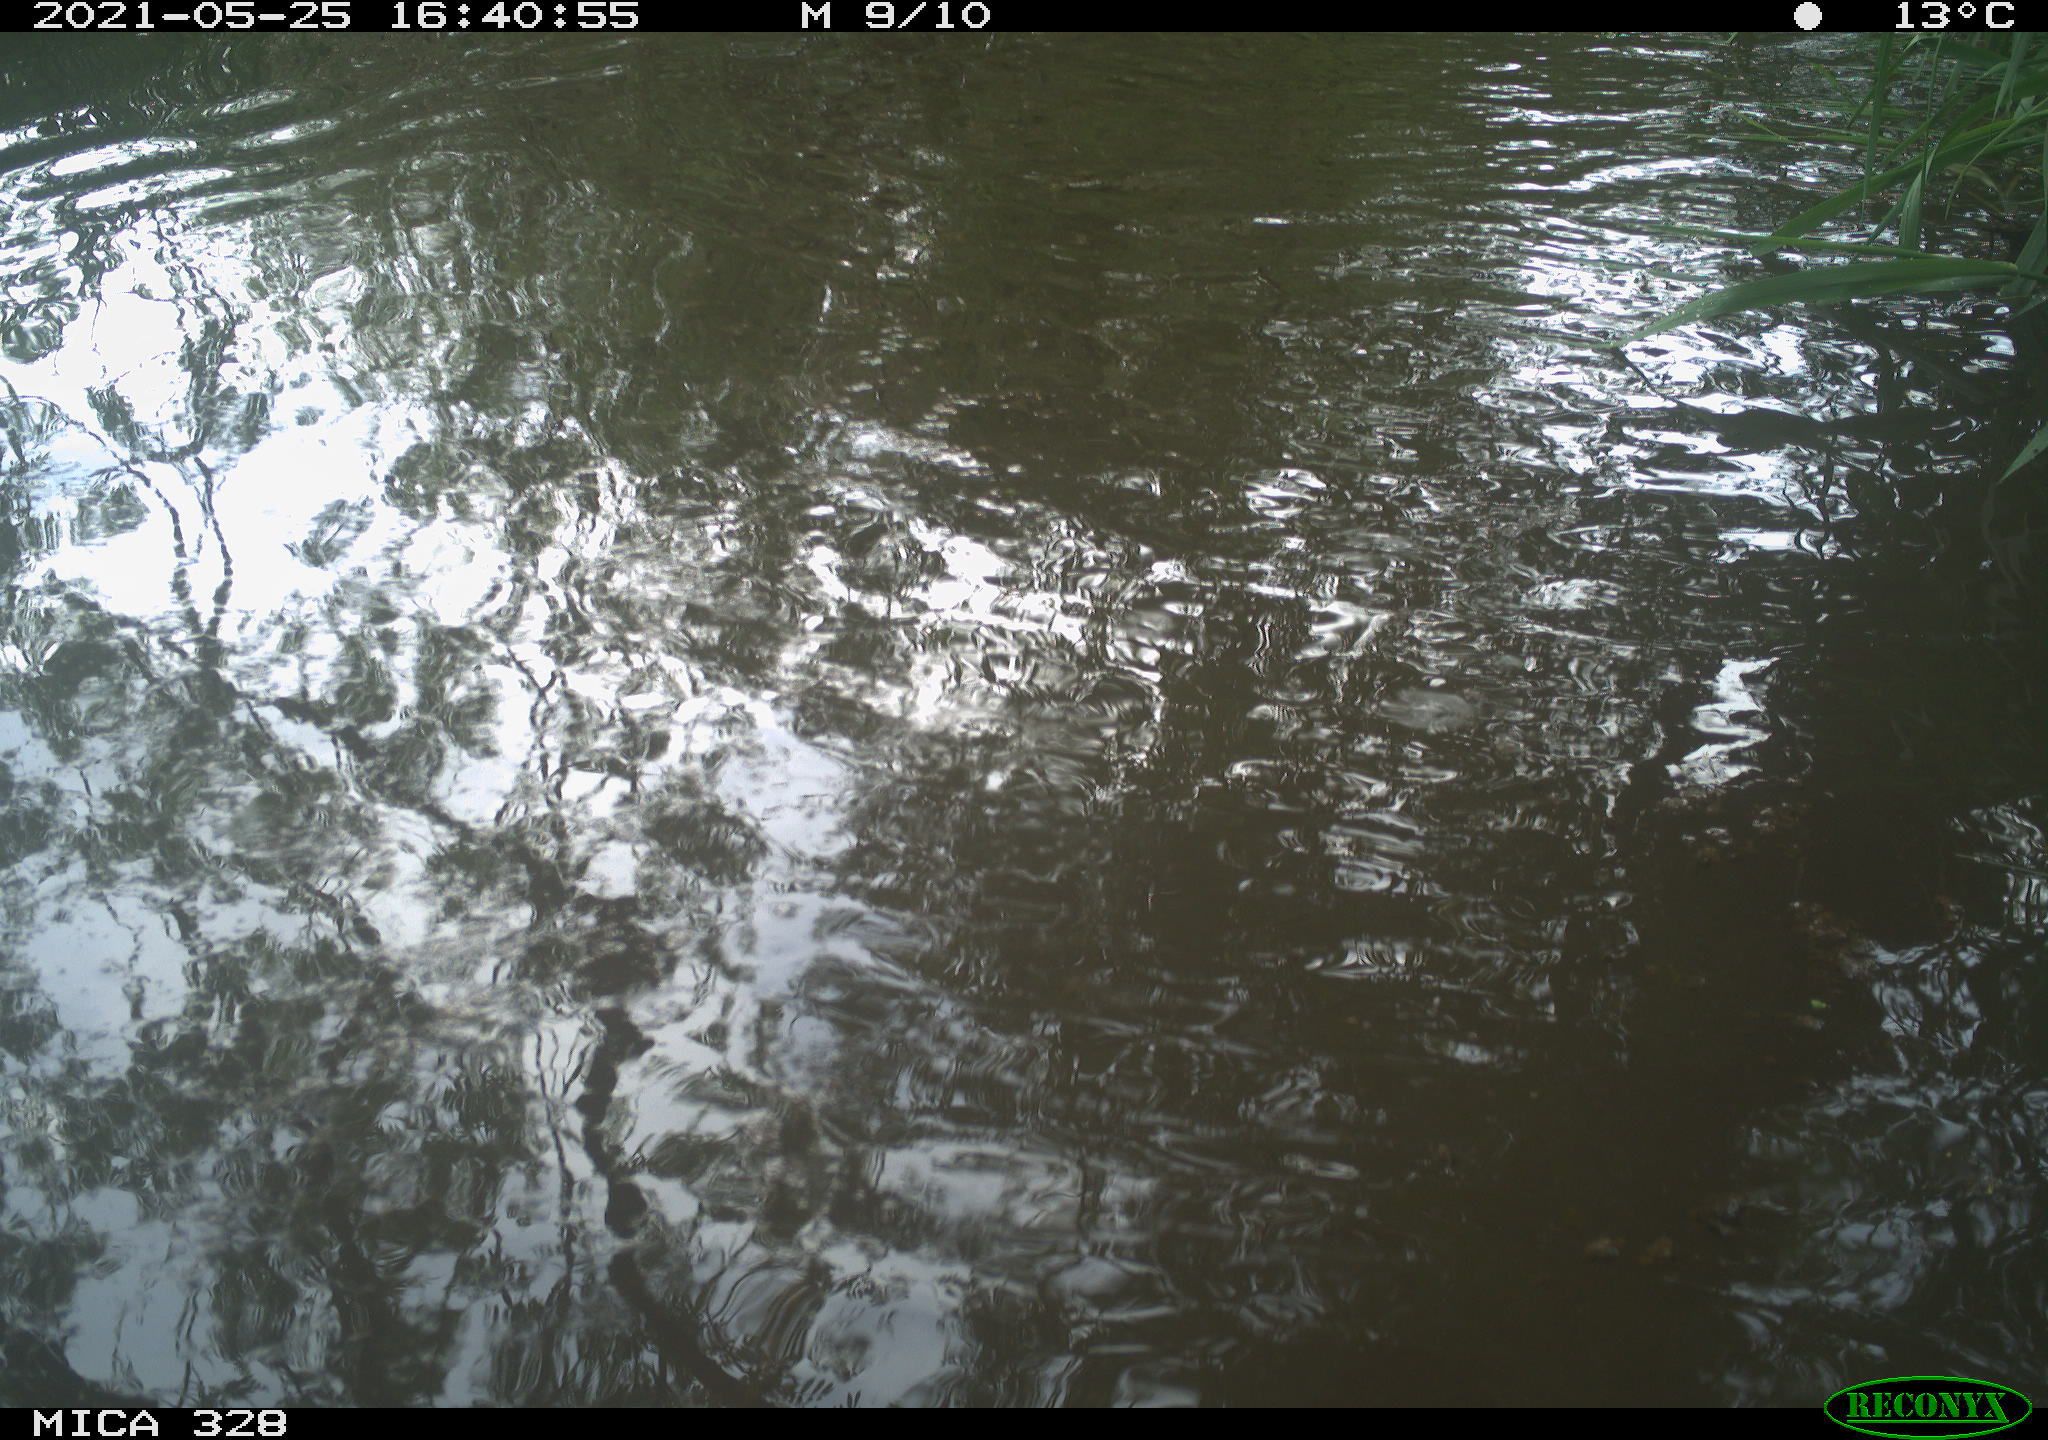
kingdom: Animalia
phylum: Chordata
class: Mammalia
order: Rodentia
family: Cricetidae
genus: Ondatra
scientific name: Ondatra zibethicus
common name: Muskrat
